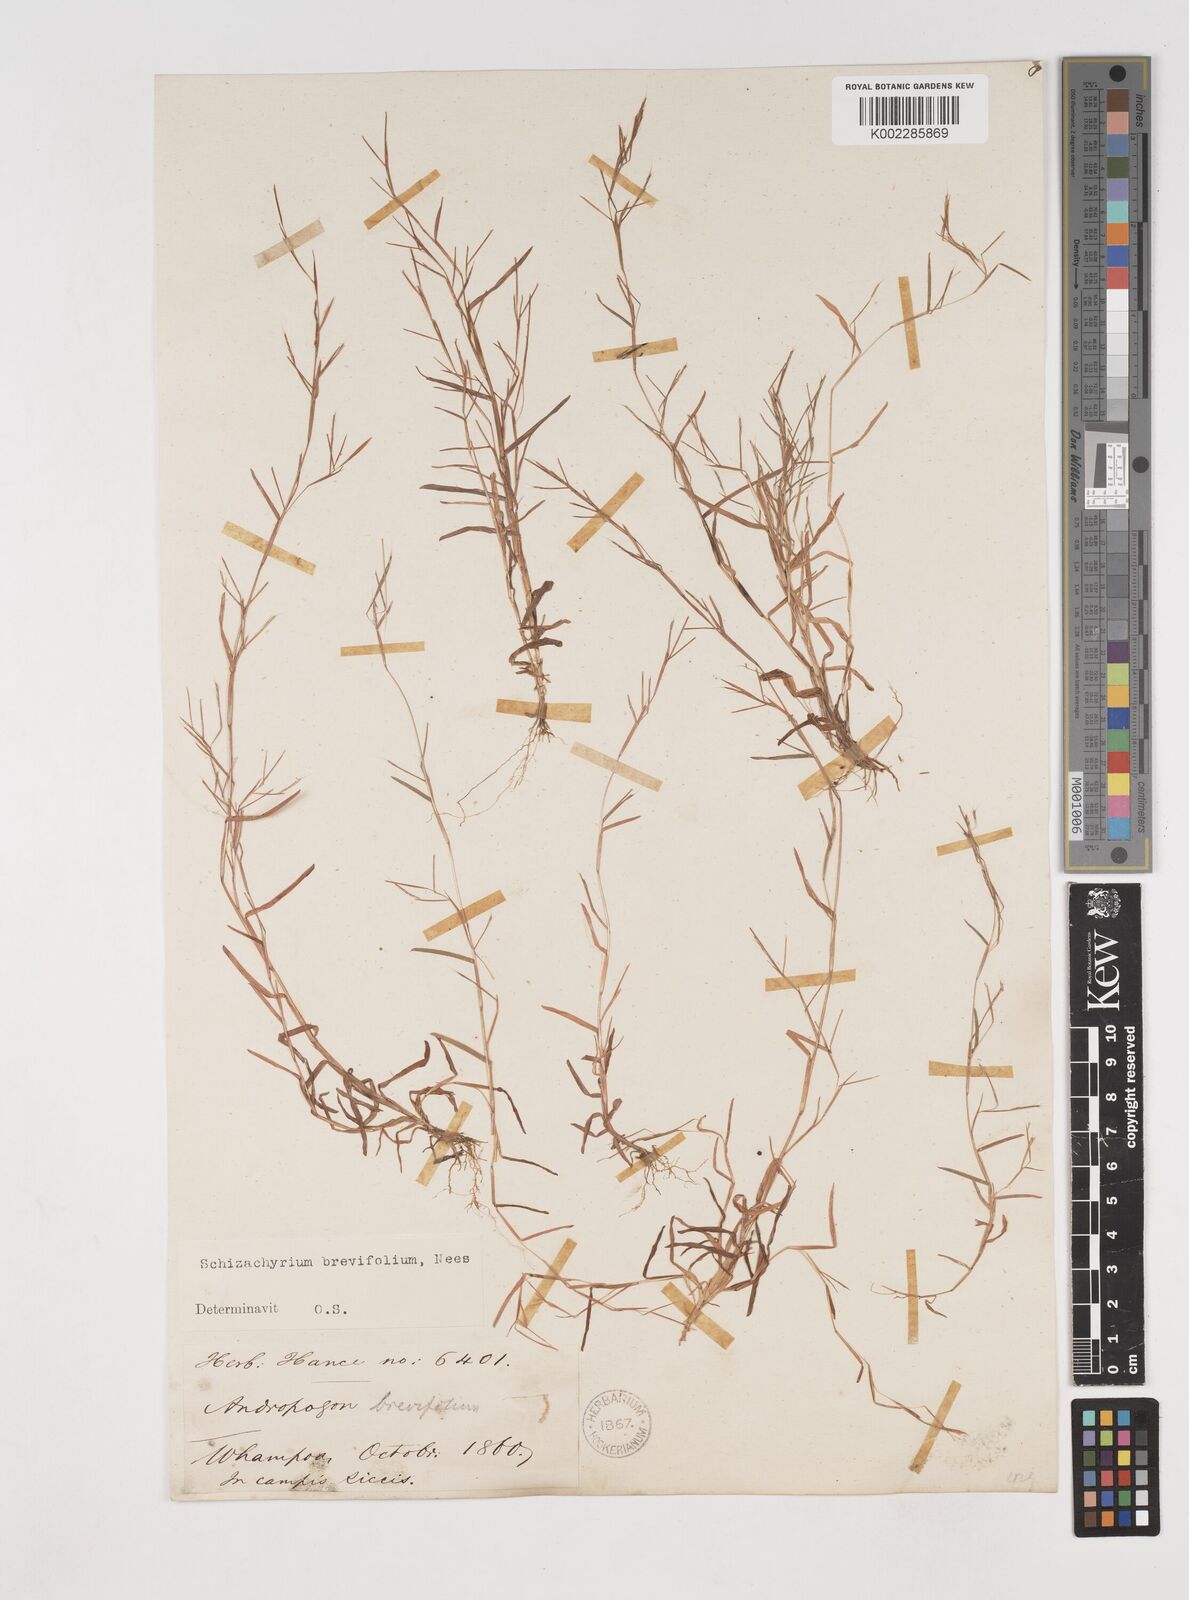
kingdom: Plantae
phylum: Tracheophyta
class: Liliopsida
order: Poales
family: Poaceae
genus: Schizachyrium
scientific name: Schizachyrium brevifolium
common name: Serillo dulce
